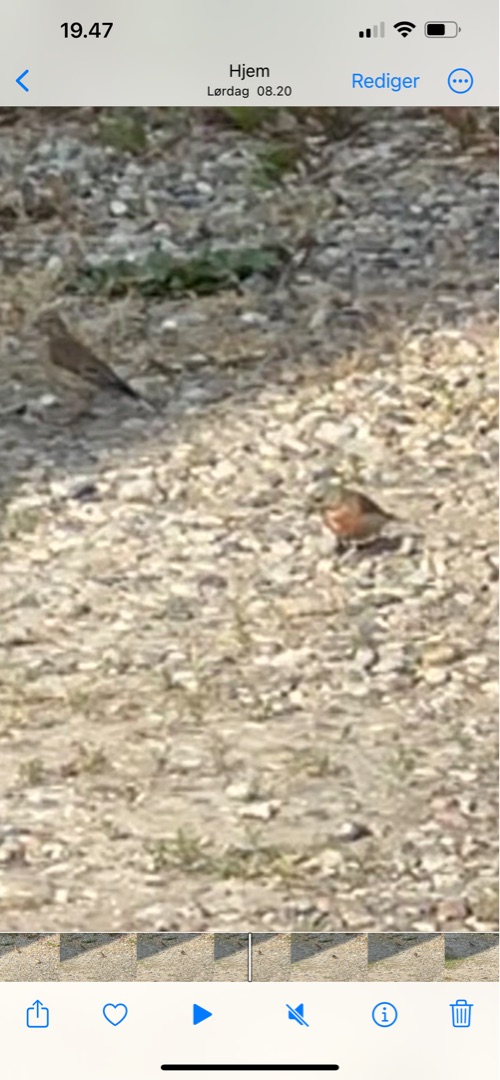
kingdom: Animalia
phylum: Chordata
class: Aves
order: Passeriformes
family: Fringillidae
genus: Linaria
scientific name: Linaria cannabina
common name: Tornirisk
